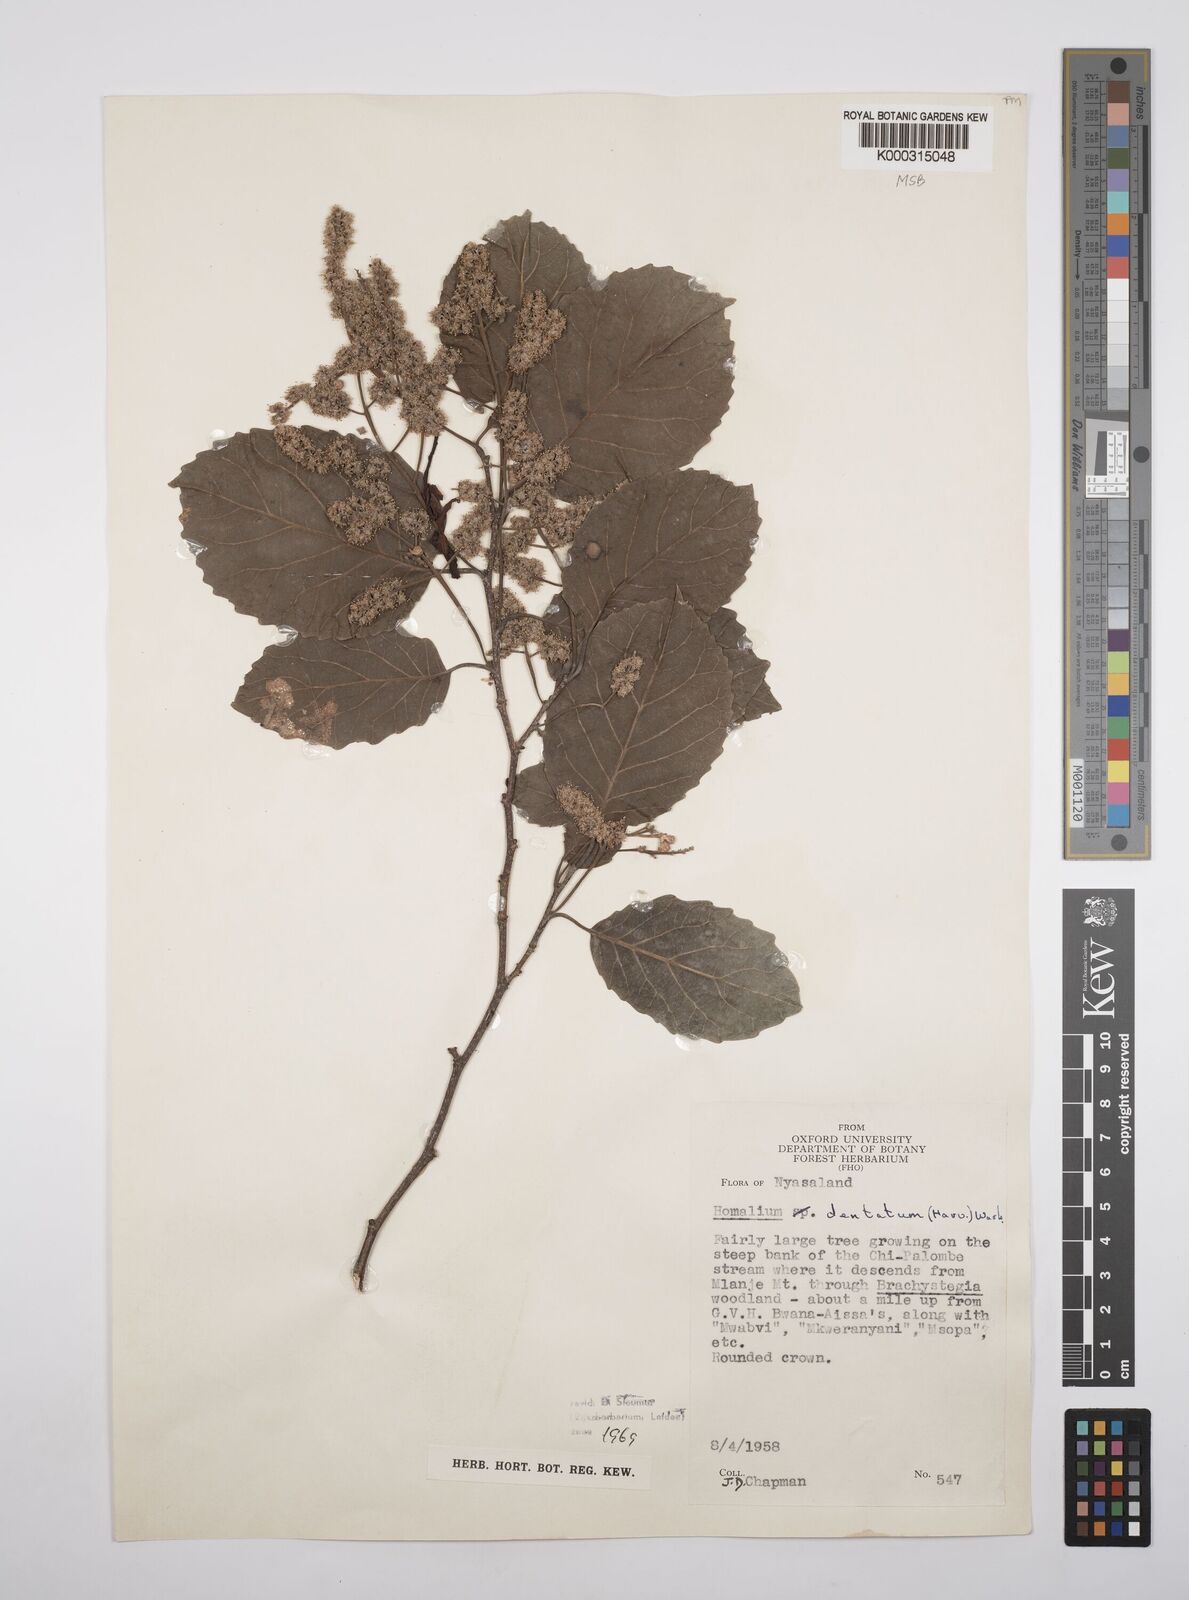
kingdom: Plantae
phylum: Tracheophyta
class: Magnoliopsida
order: Malpighiales
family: Salicaceae
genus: Homalium
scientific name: Homalium dentatum
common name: Brown ironwood
